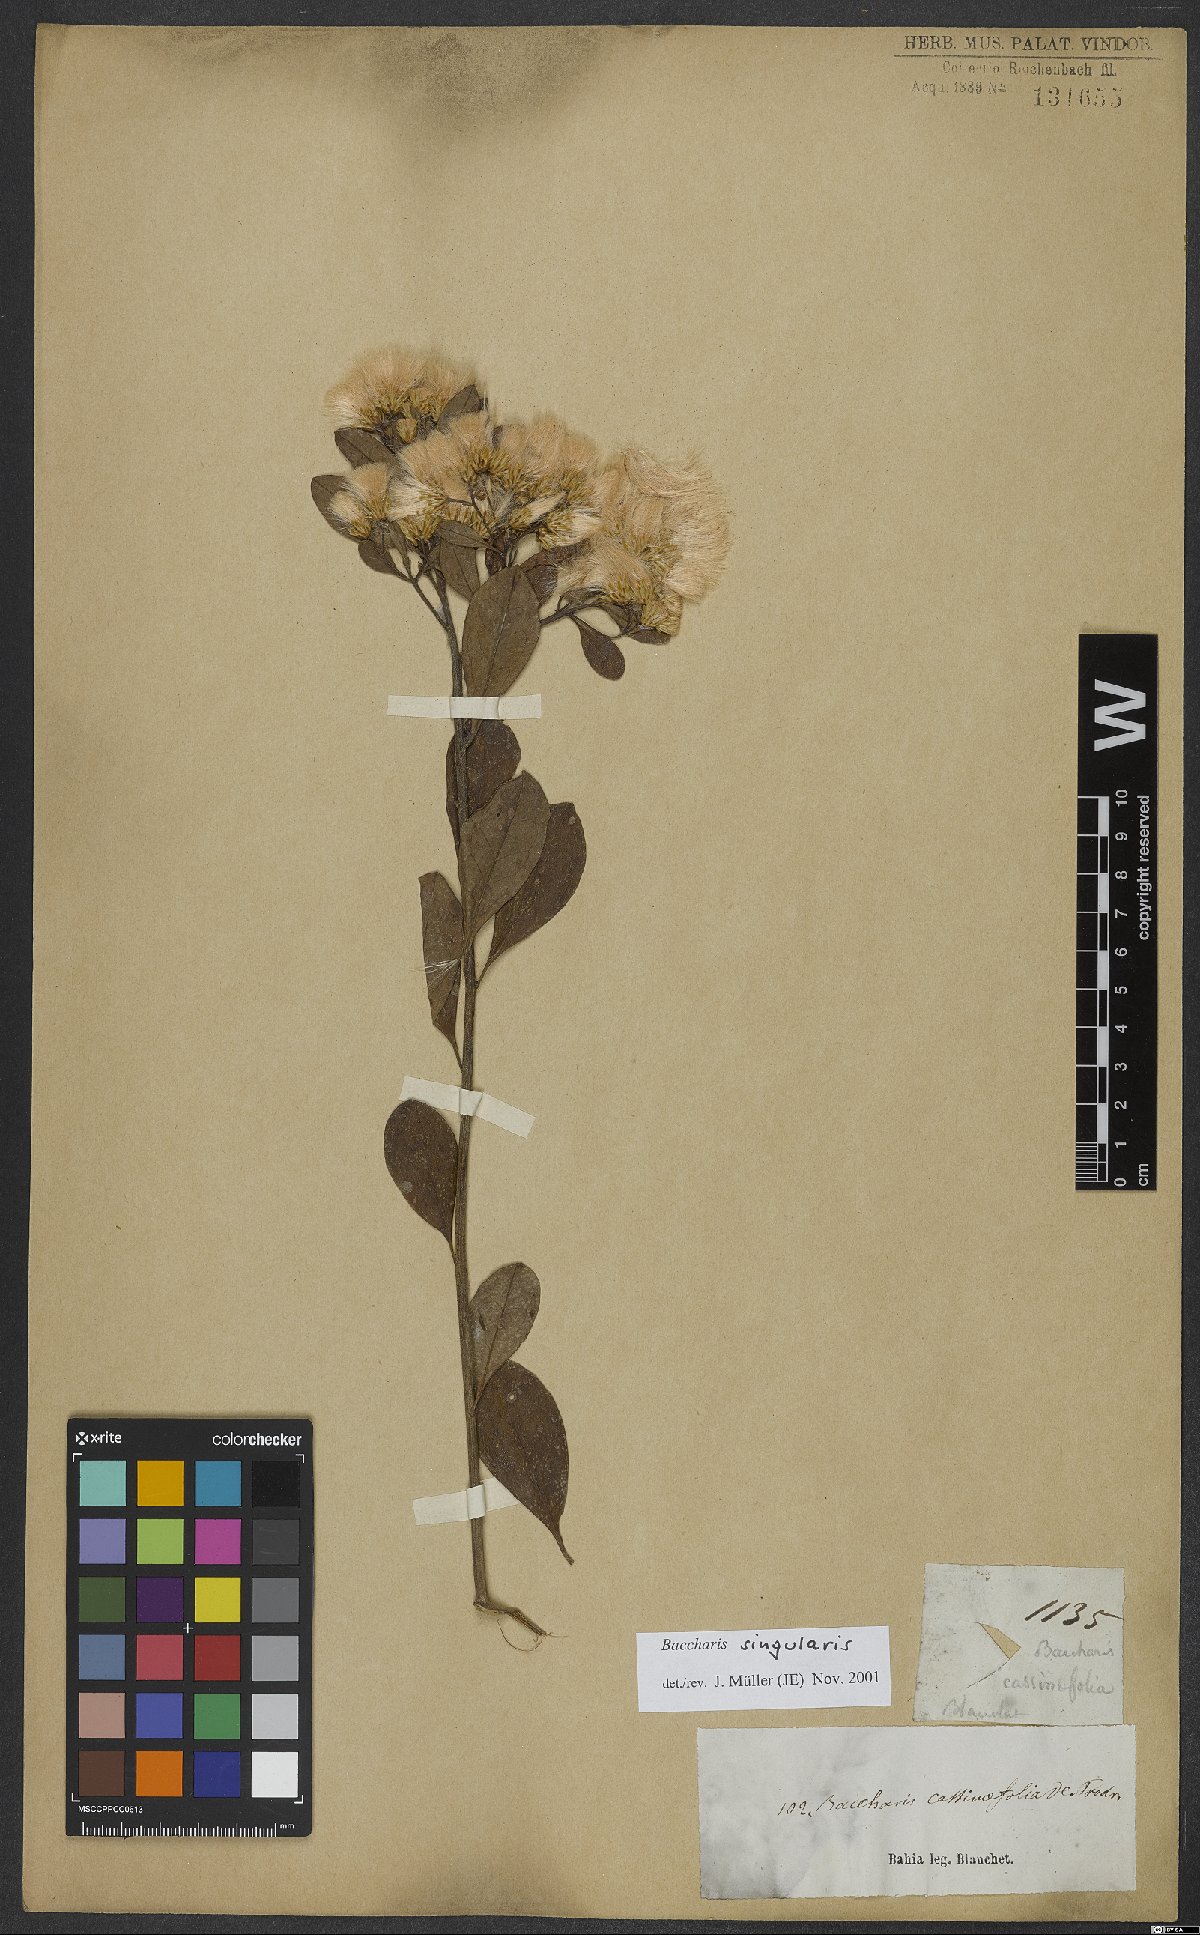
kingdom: Plantae
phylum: Tracheophyta
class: Magnoliopsida
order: Asterales
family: Asteraceae
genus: Baccharis
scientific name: Baccharis singularis
